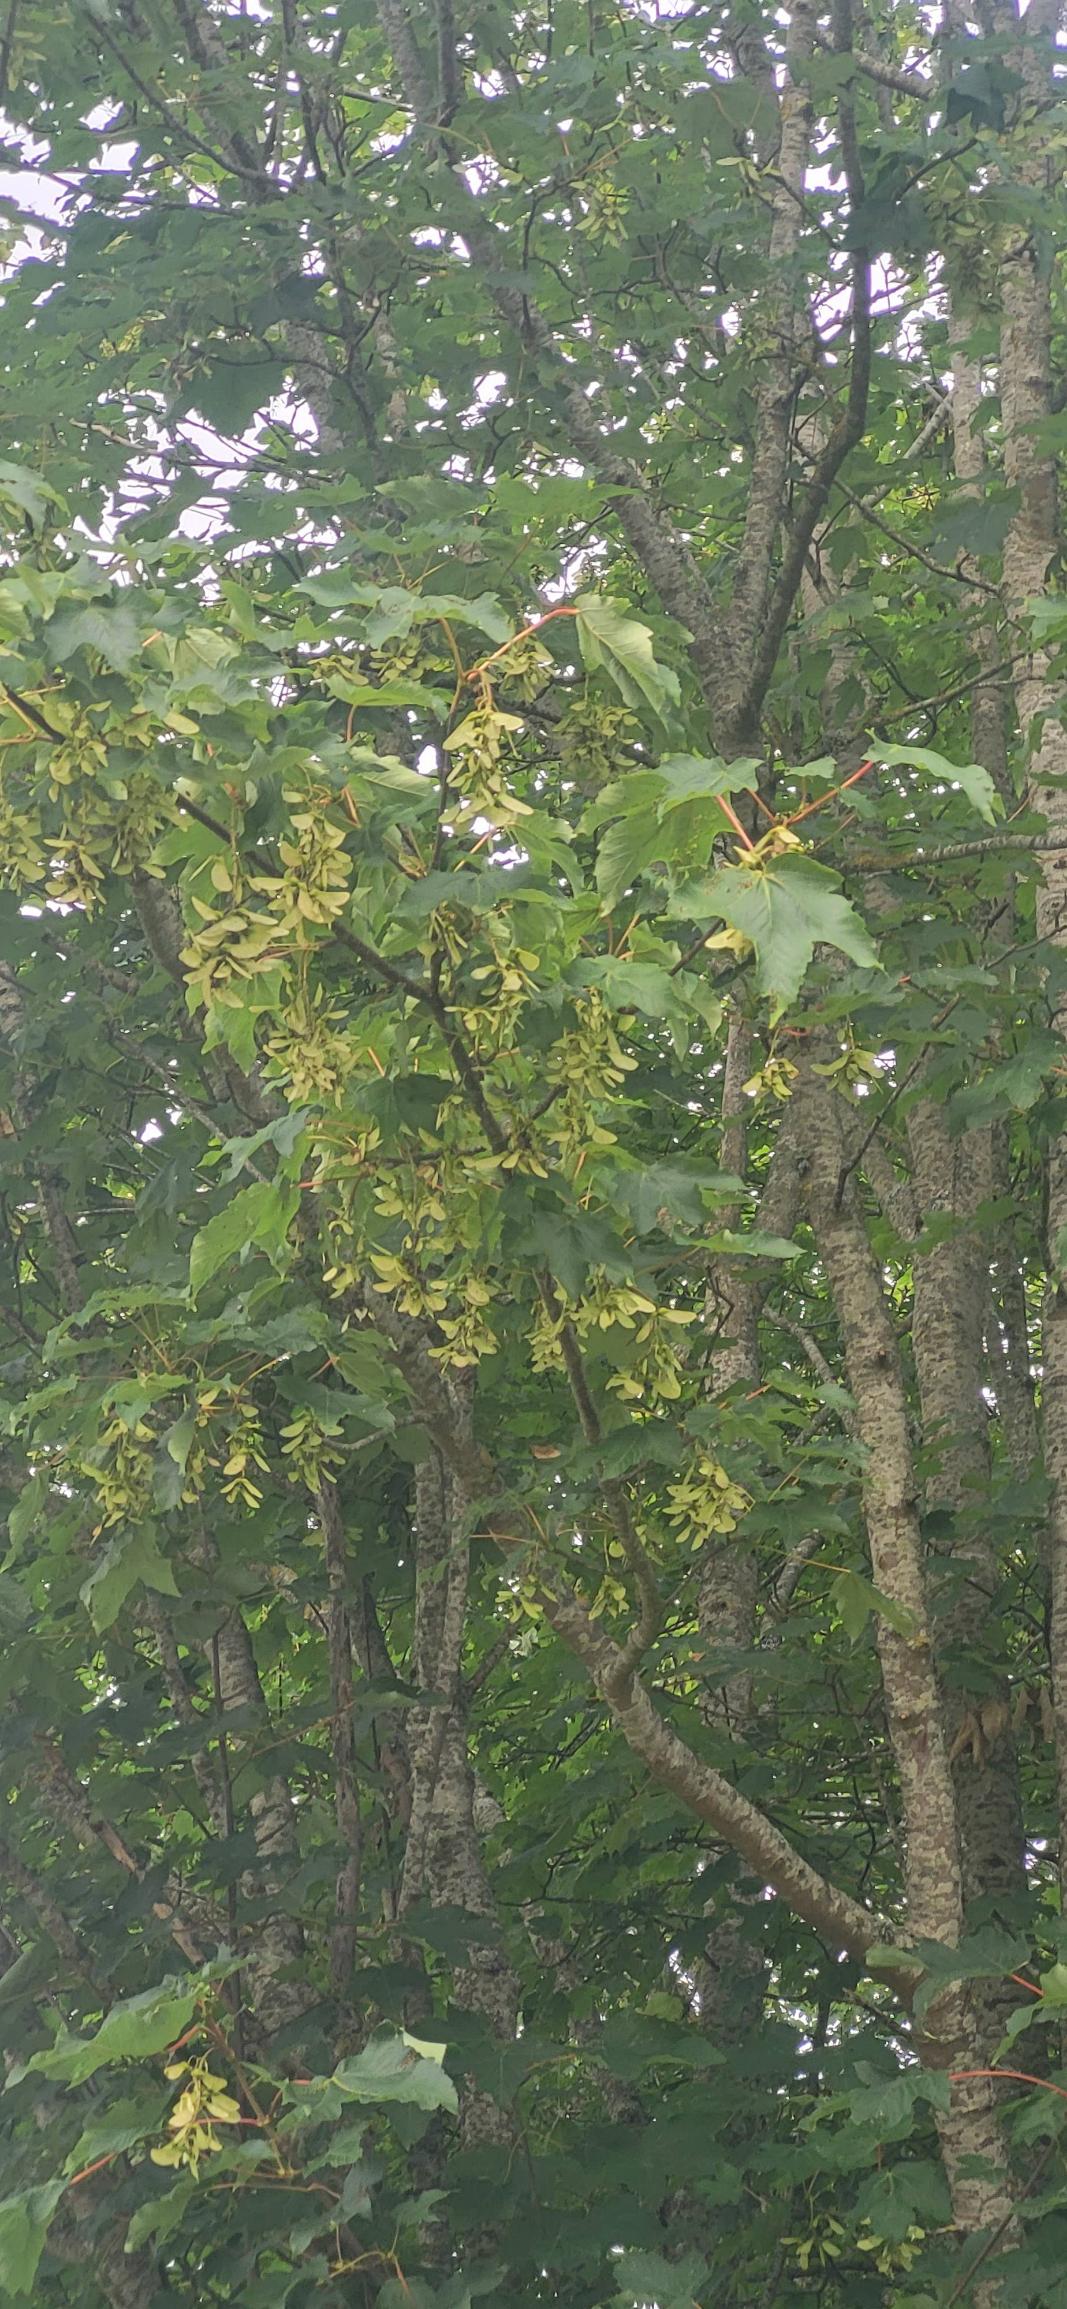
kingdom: Plantae
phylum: Tracheophyta
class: Magnoliopsida
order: Sapindales
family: Sapindaceae
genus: Acer
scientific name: Acer pseudoplatanus
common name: Ahorn
